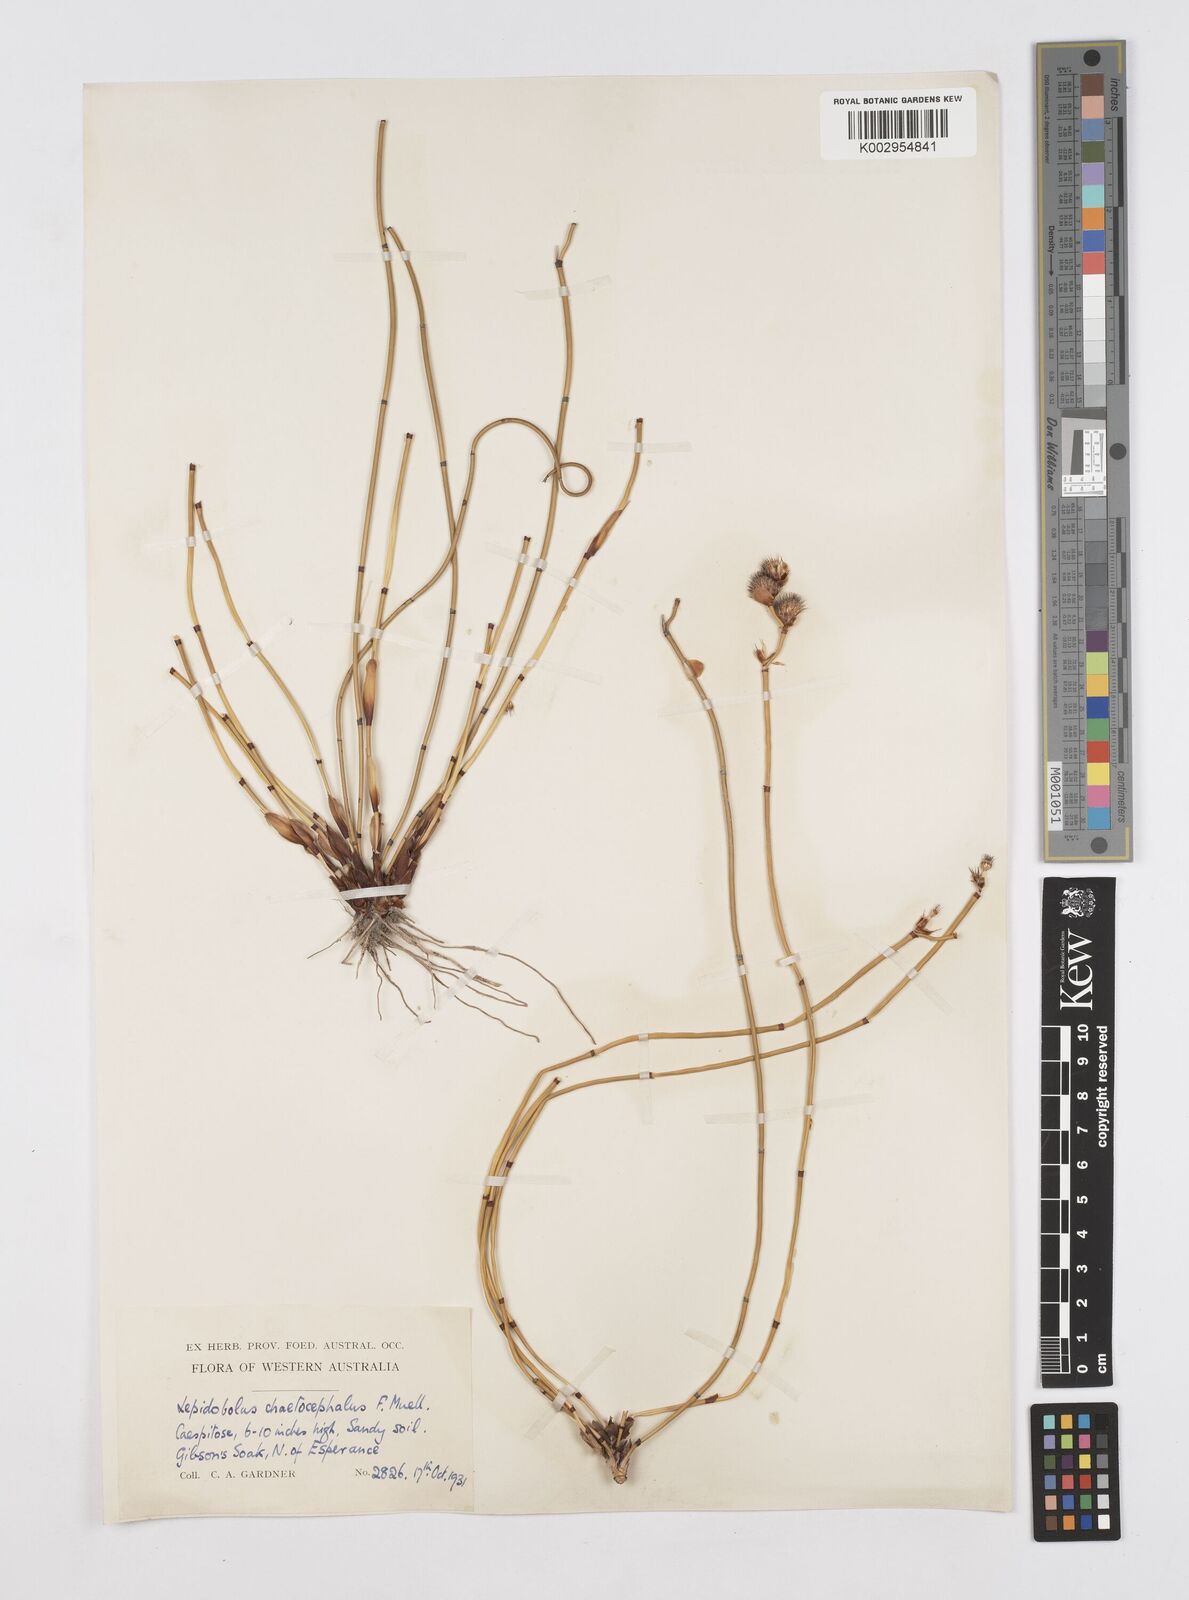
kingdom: Plantae
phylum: Tracheophyta
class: Liliopsida
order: Poales
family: Restionaceae
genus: Lepidobolus
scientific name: Lepidobolus chaetocephalus
